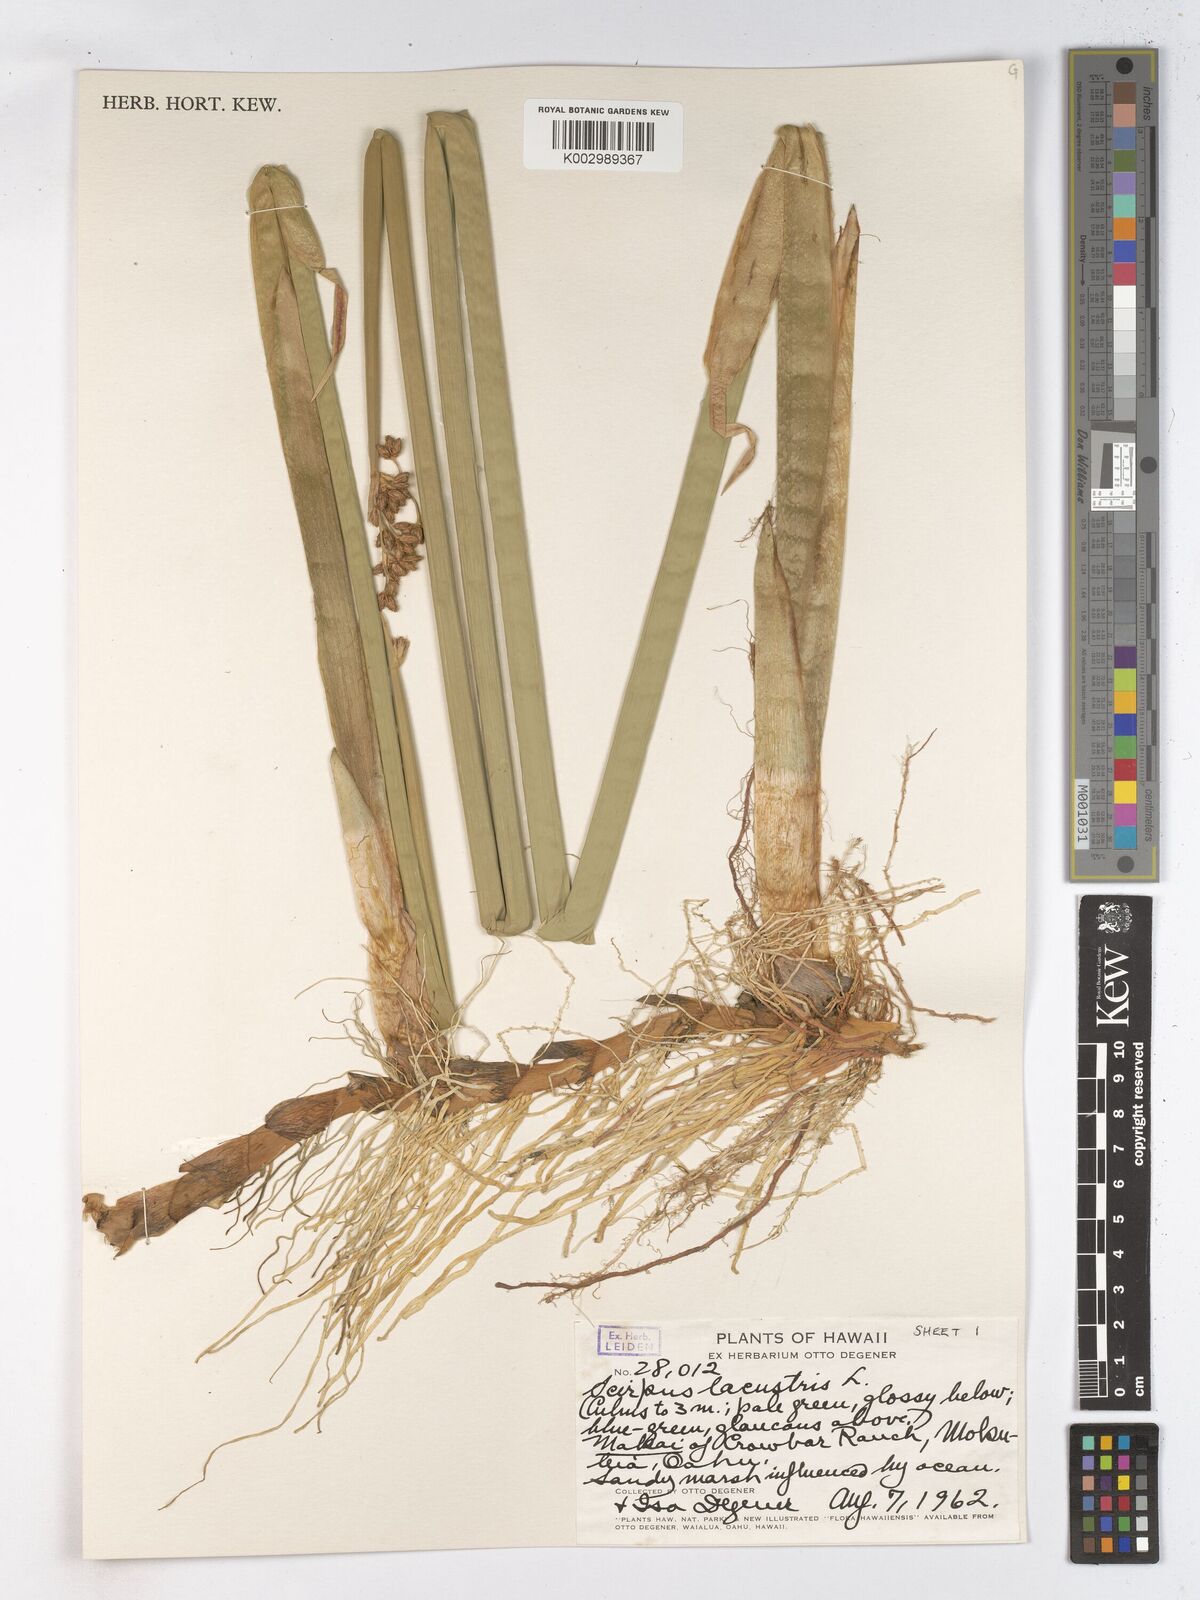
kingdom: Plantae
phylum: Tracheophyta
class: Liliopsida
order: Poales
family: Cyperaceae
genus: Schoenoplectus
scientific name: Schoenoplectus lacustris
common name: Common club-rush
